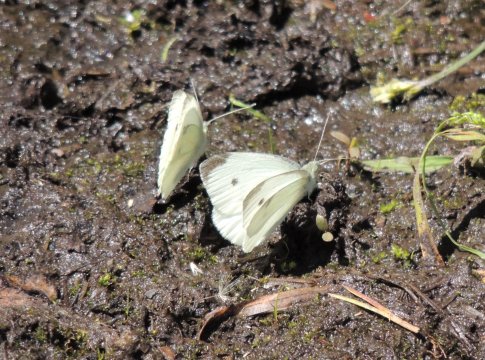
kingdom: Animalia
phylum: Arthropoda
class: Insecta
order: Lepidoptera
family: Pieridae
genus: Pieris
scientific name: Pieris rapae
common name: Cabbage White
